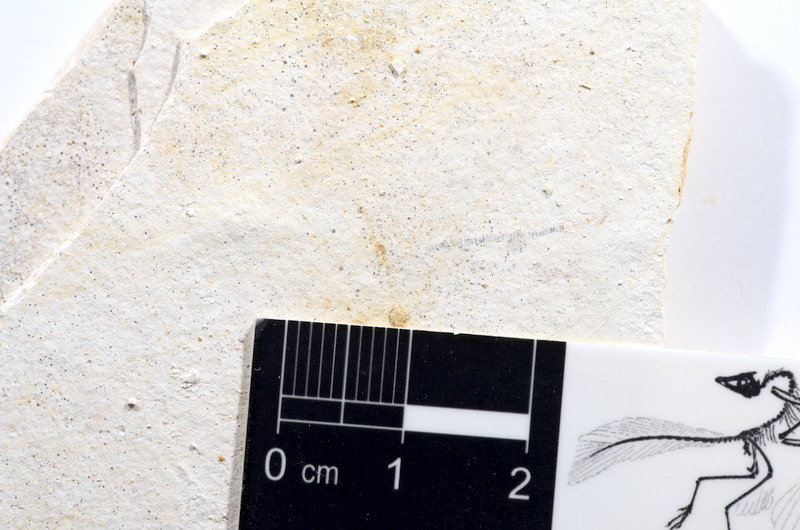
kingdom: Animalia
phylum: Chordata
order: Salmoniformes
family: Orthogonikleithridae
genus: Orthogonikleithrus
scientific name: Orthogonikleithrus hoelli
